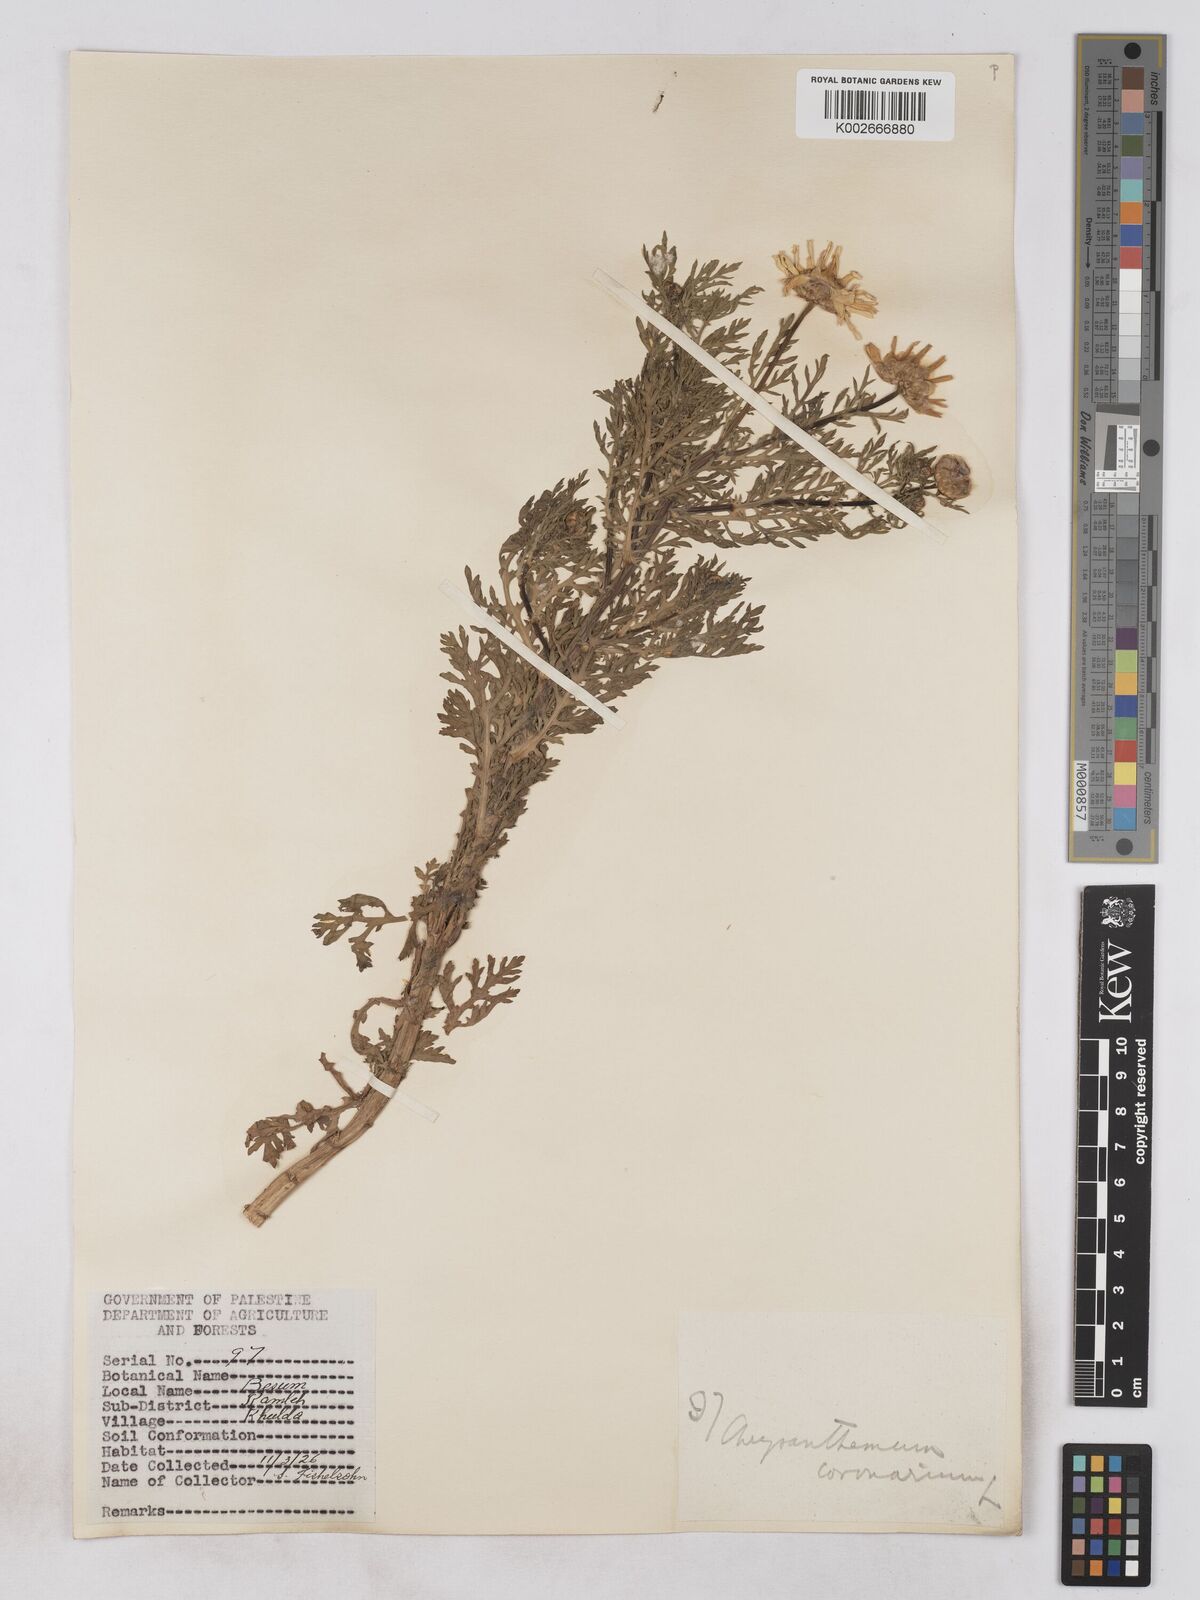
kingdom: Plantae
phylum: Tracheophyta
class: Magnoliopsida
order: Asterales
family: Asteraceae
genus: Glebionis
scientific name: Glebionis coronaria
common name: Crowndaisy
